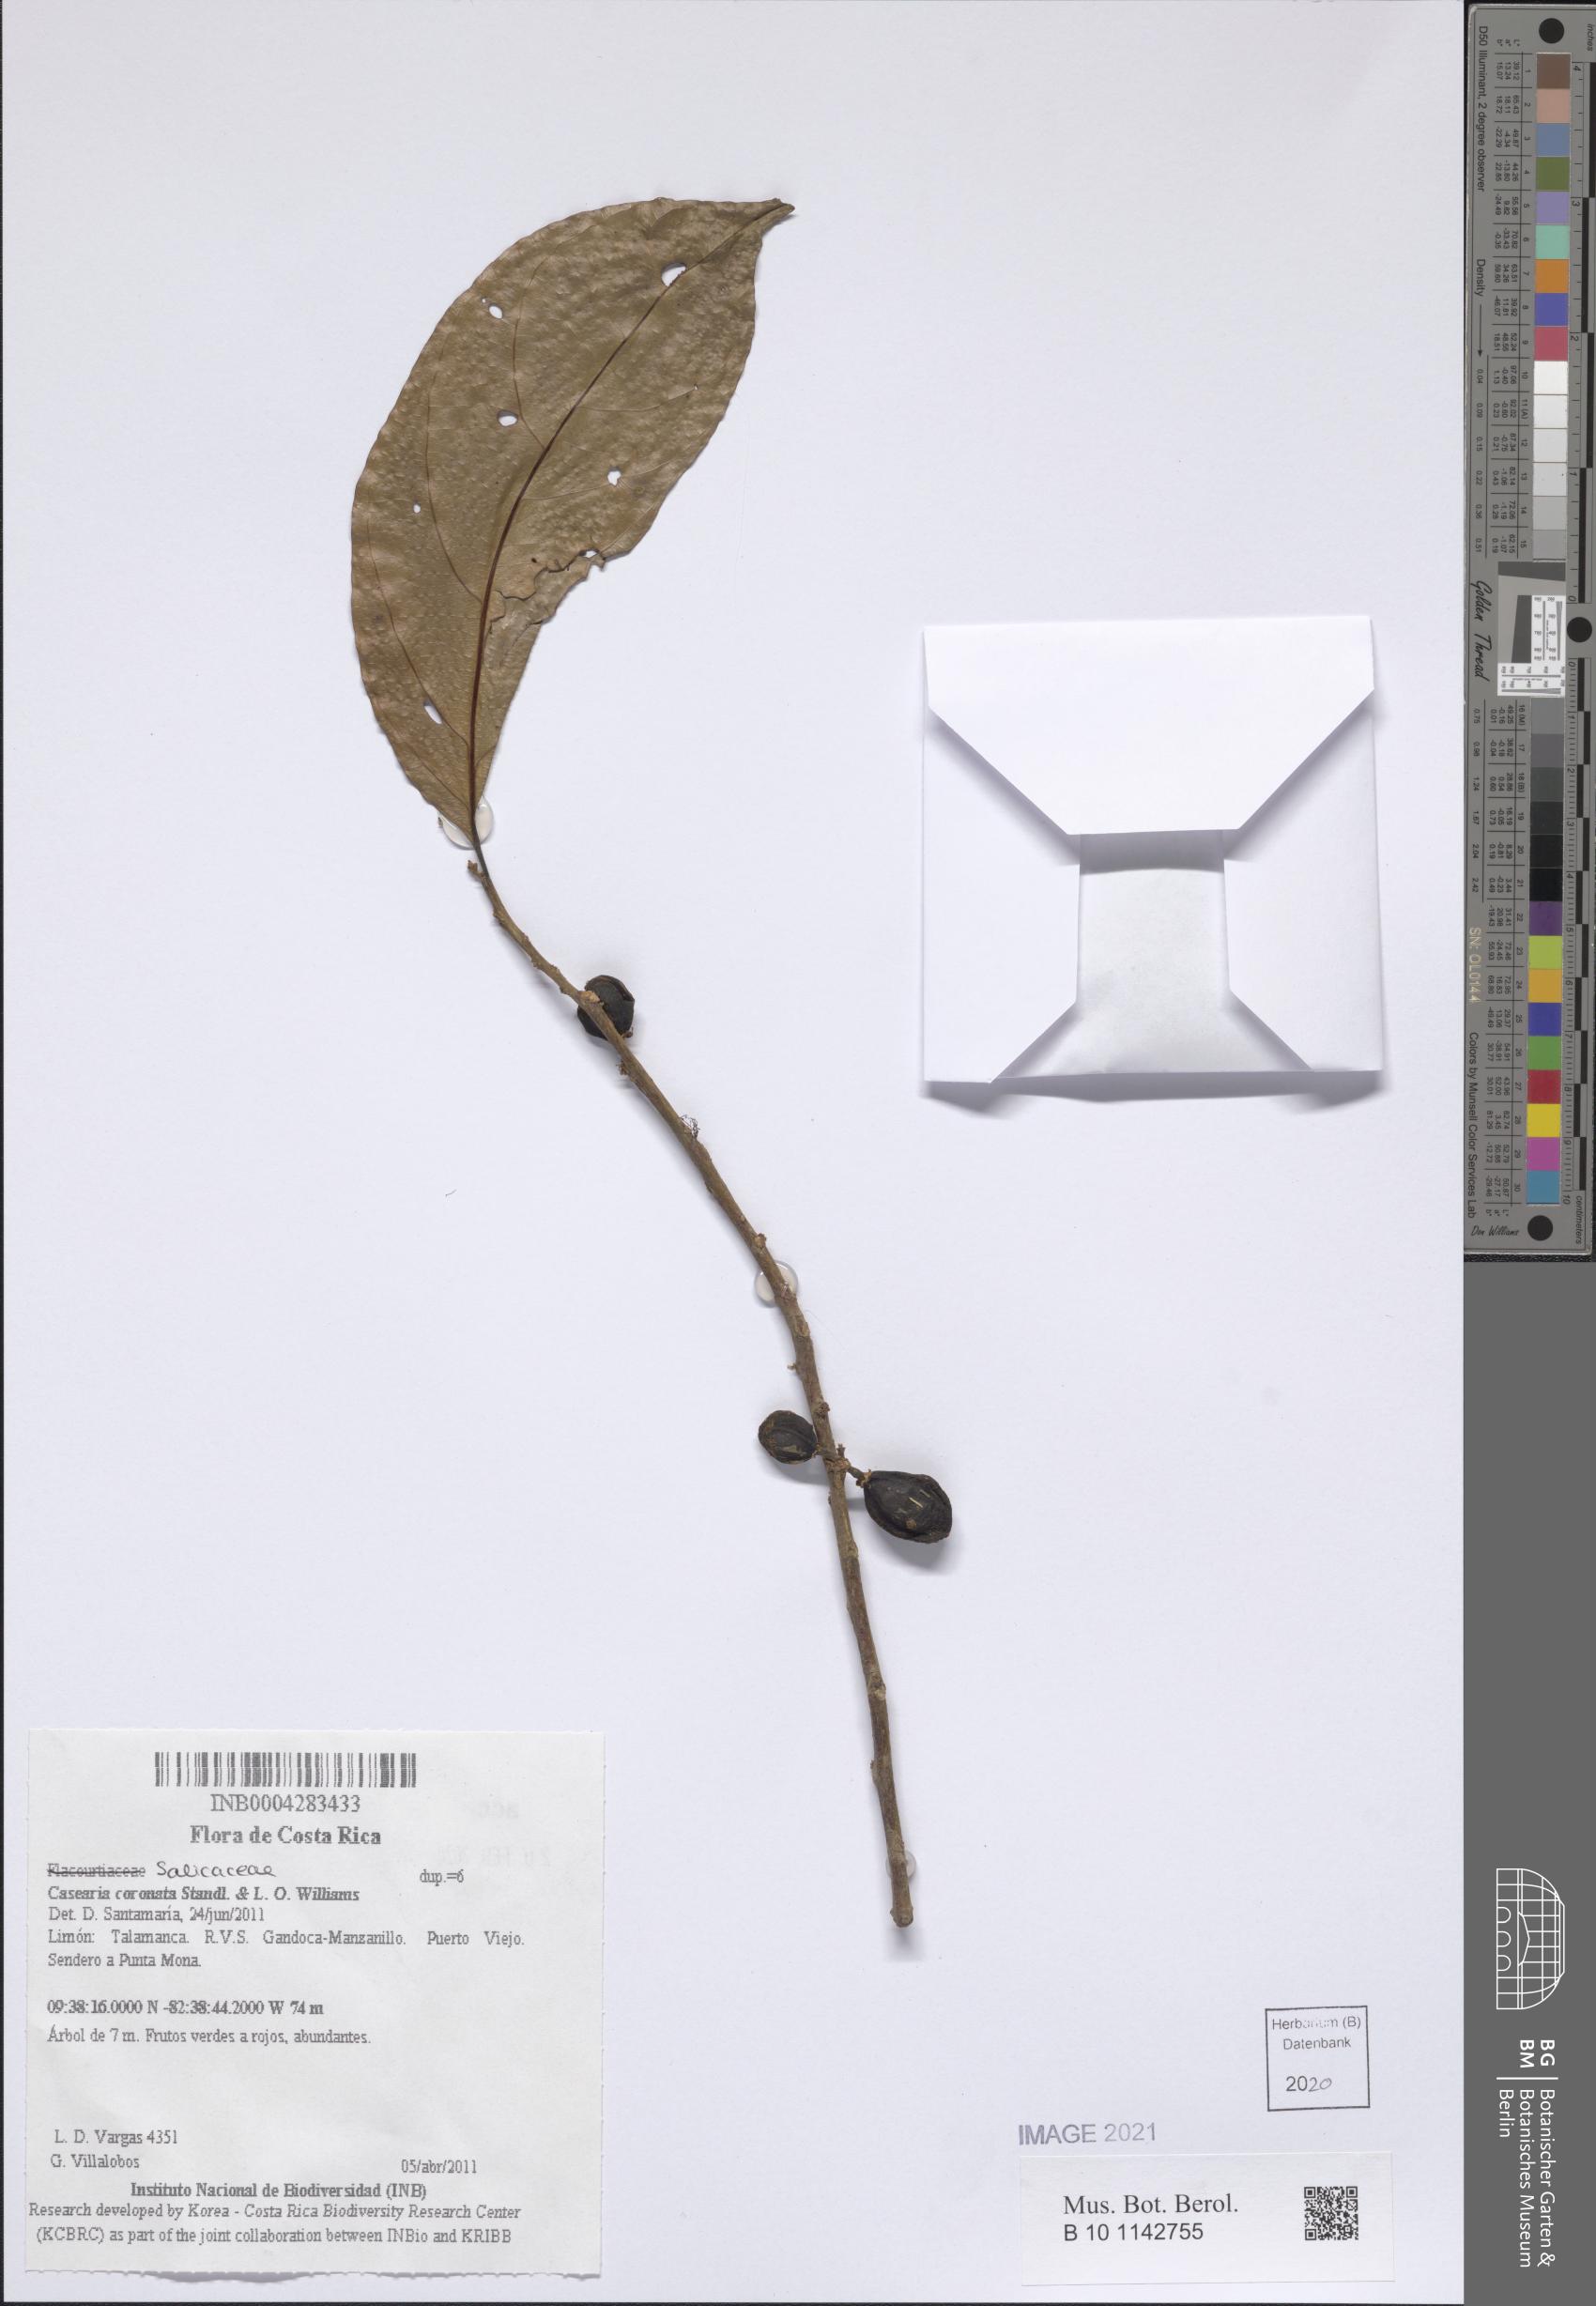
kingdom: Plantae
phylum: Tracheophyta
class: Magnoliopsida
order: Malpighiales
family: Salicaceae
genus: Casearia
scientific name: Casearia coronata
